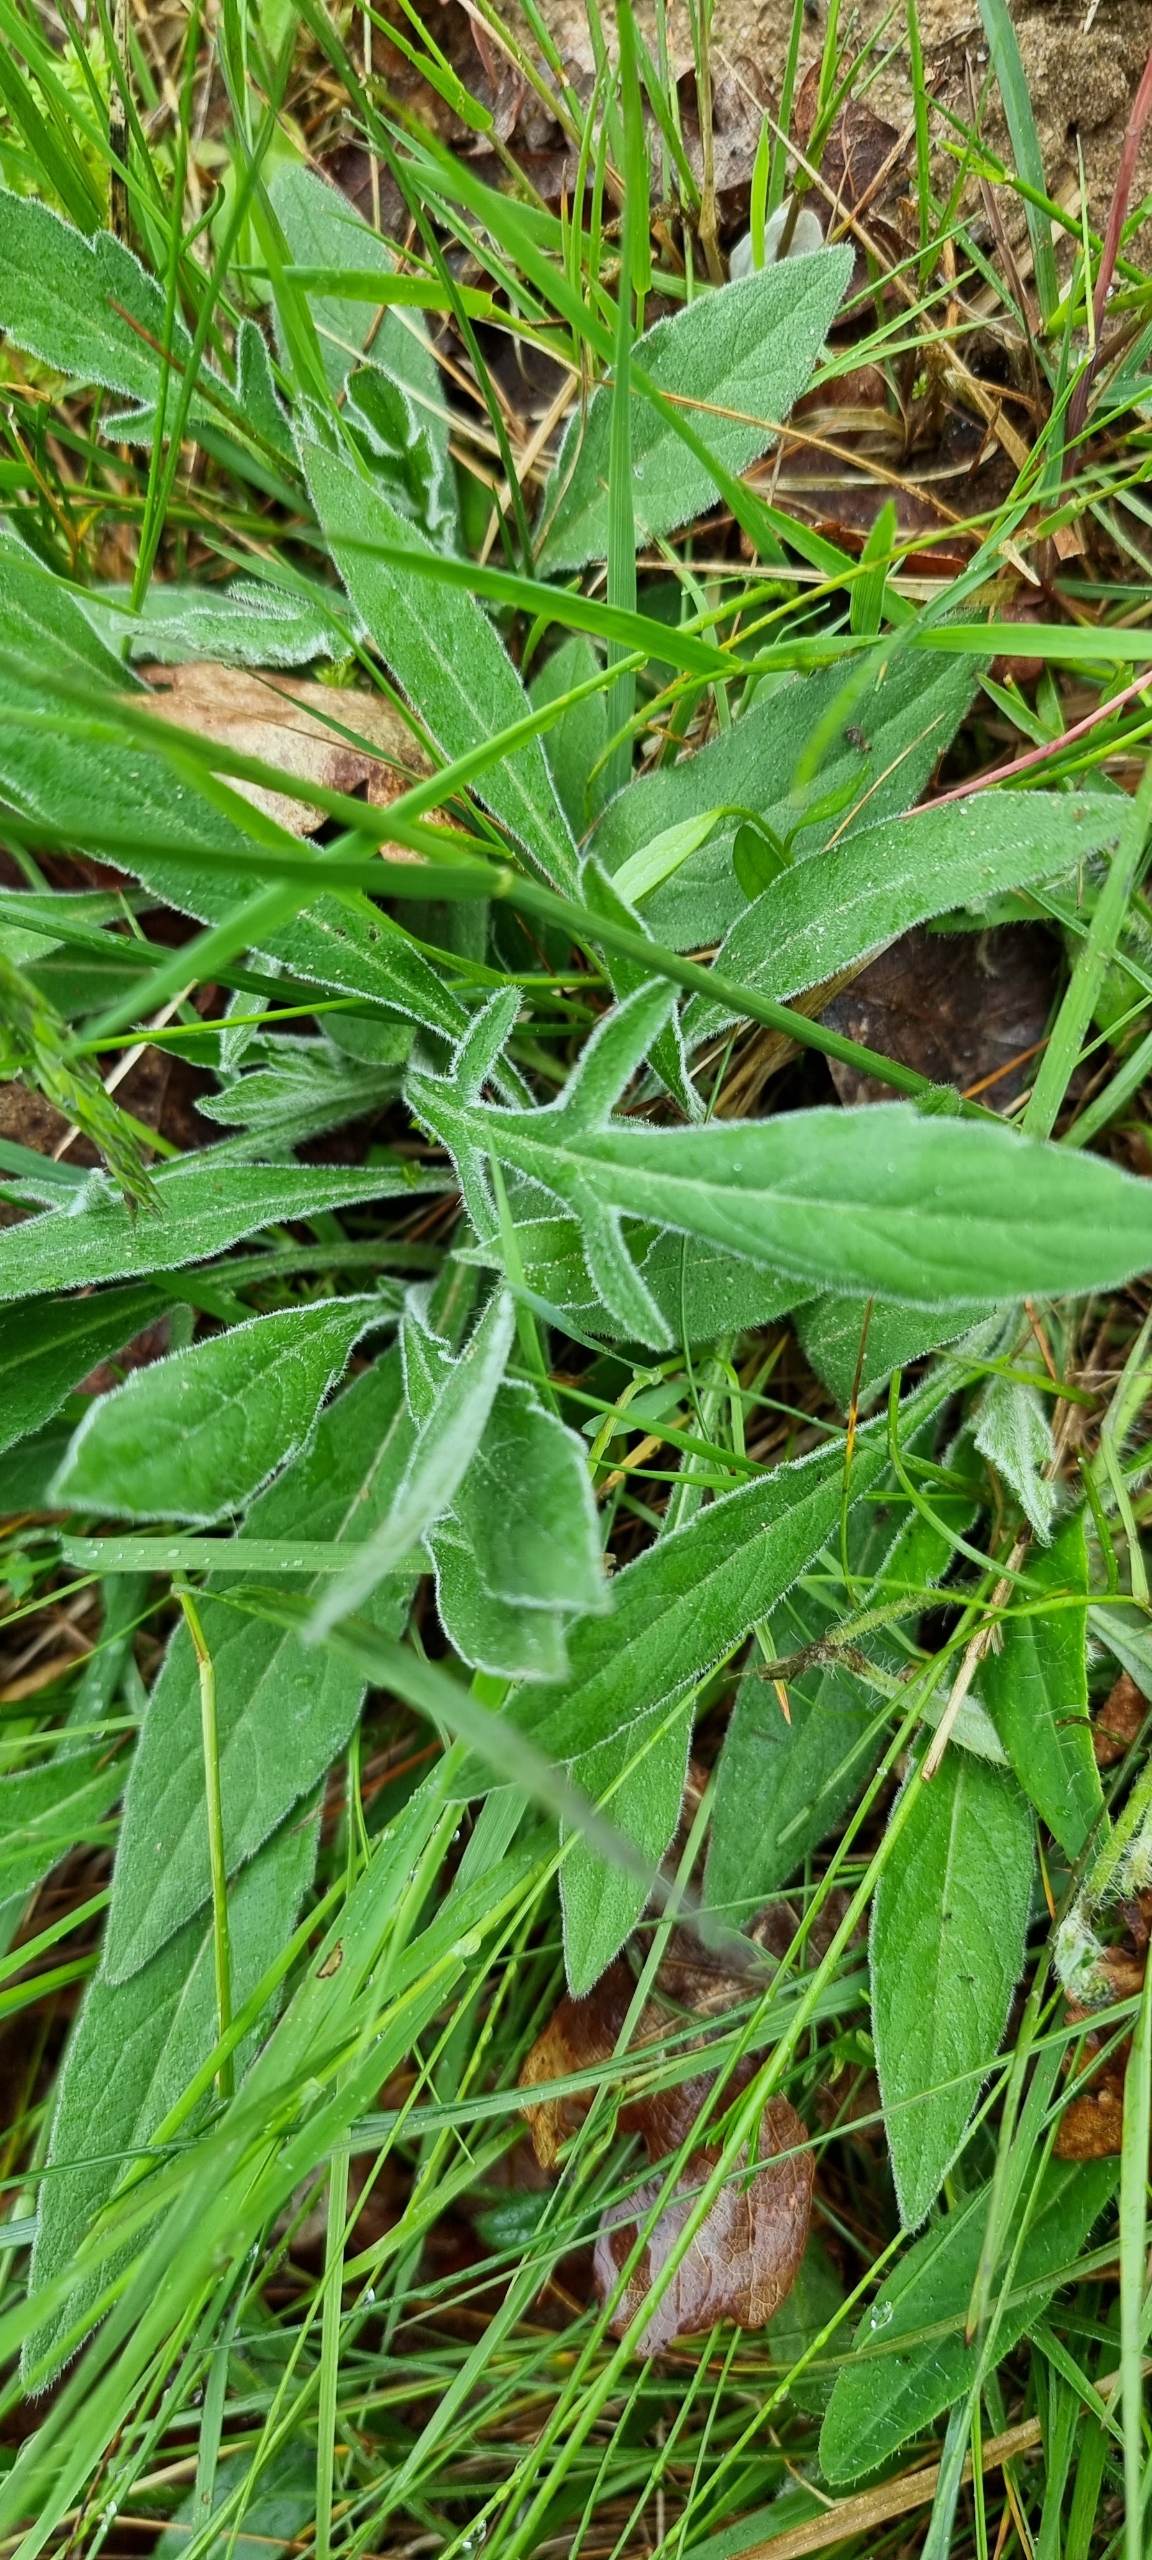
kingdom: Plantae
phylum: Tracheophyta
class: Magnoliopsida
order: Dipsacales
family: Caprifoliaceae
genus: Knautia
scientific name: Knautia arvensis
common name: Blåhat
